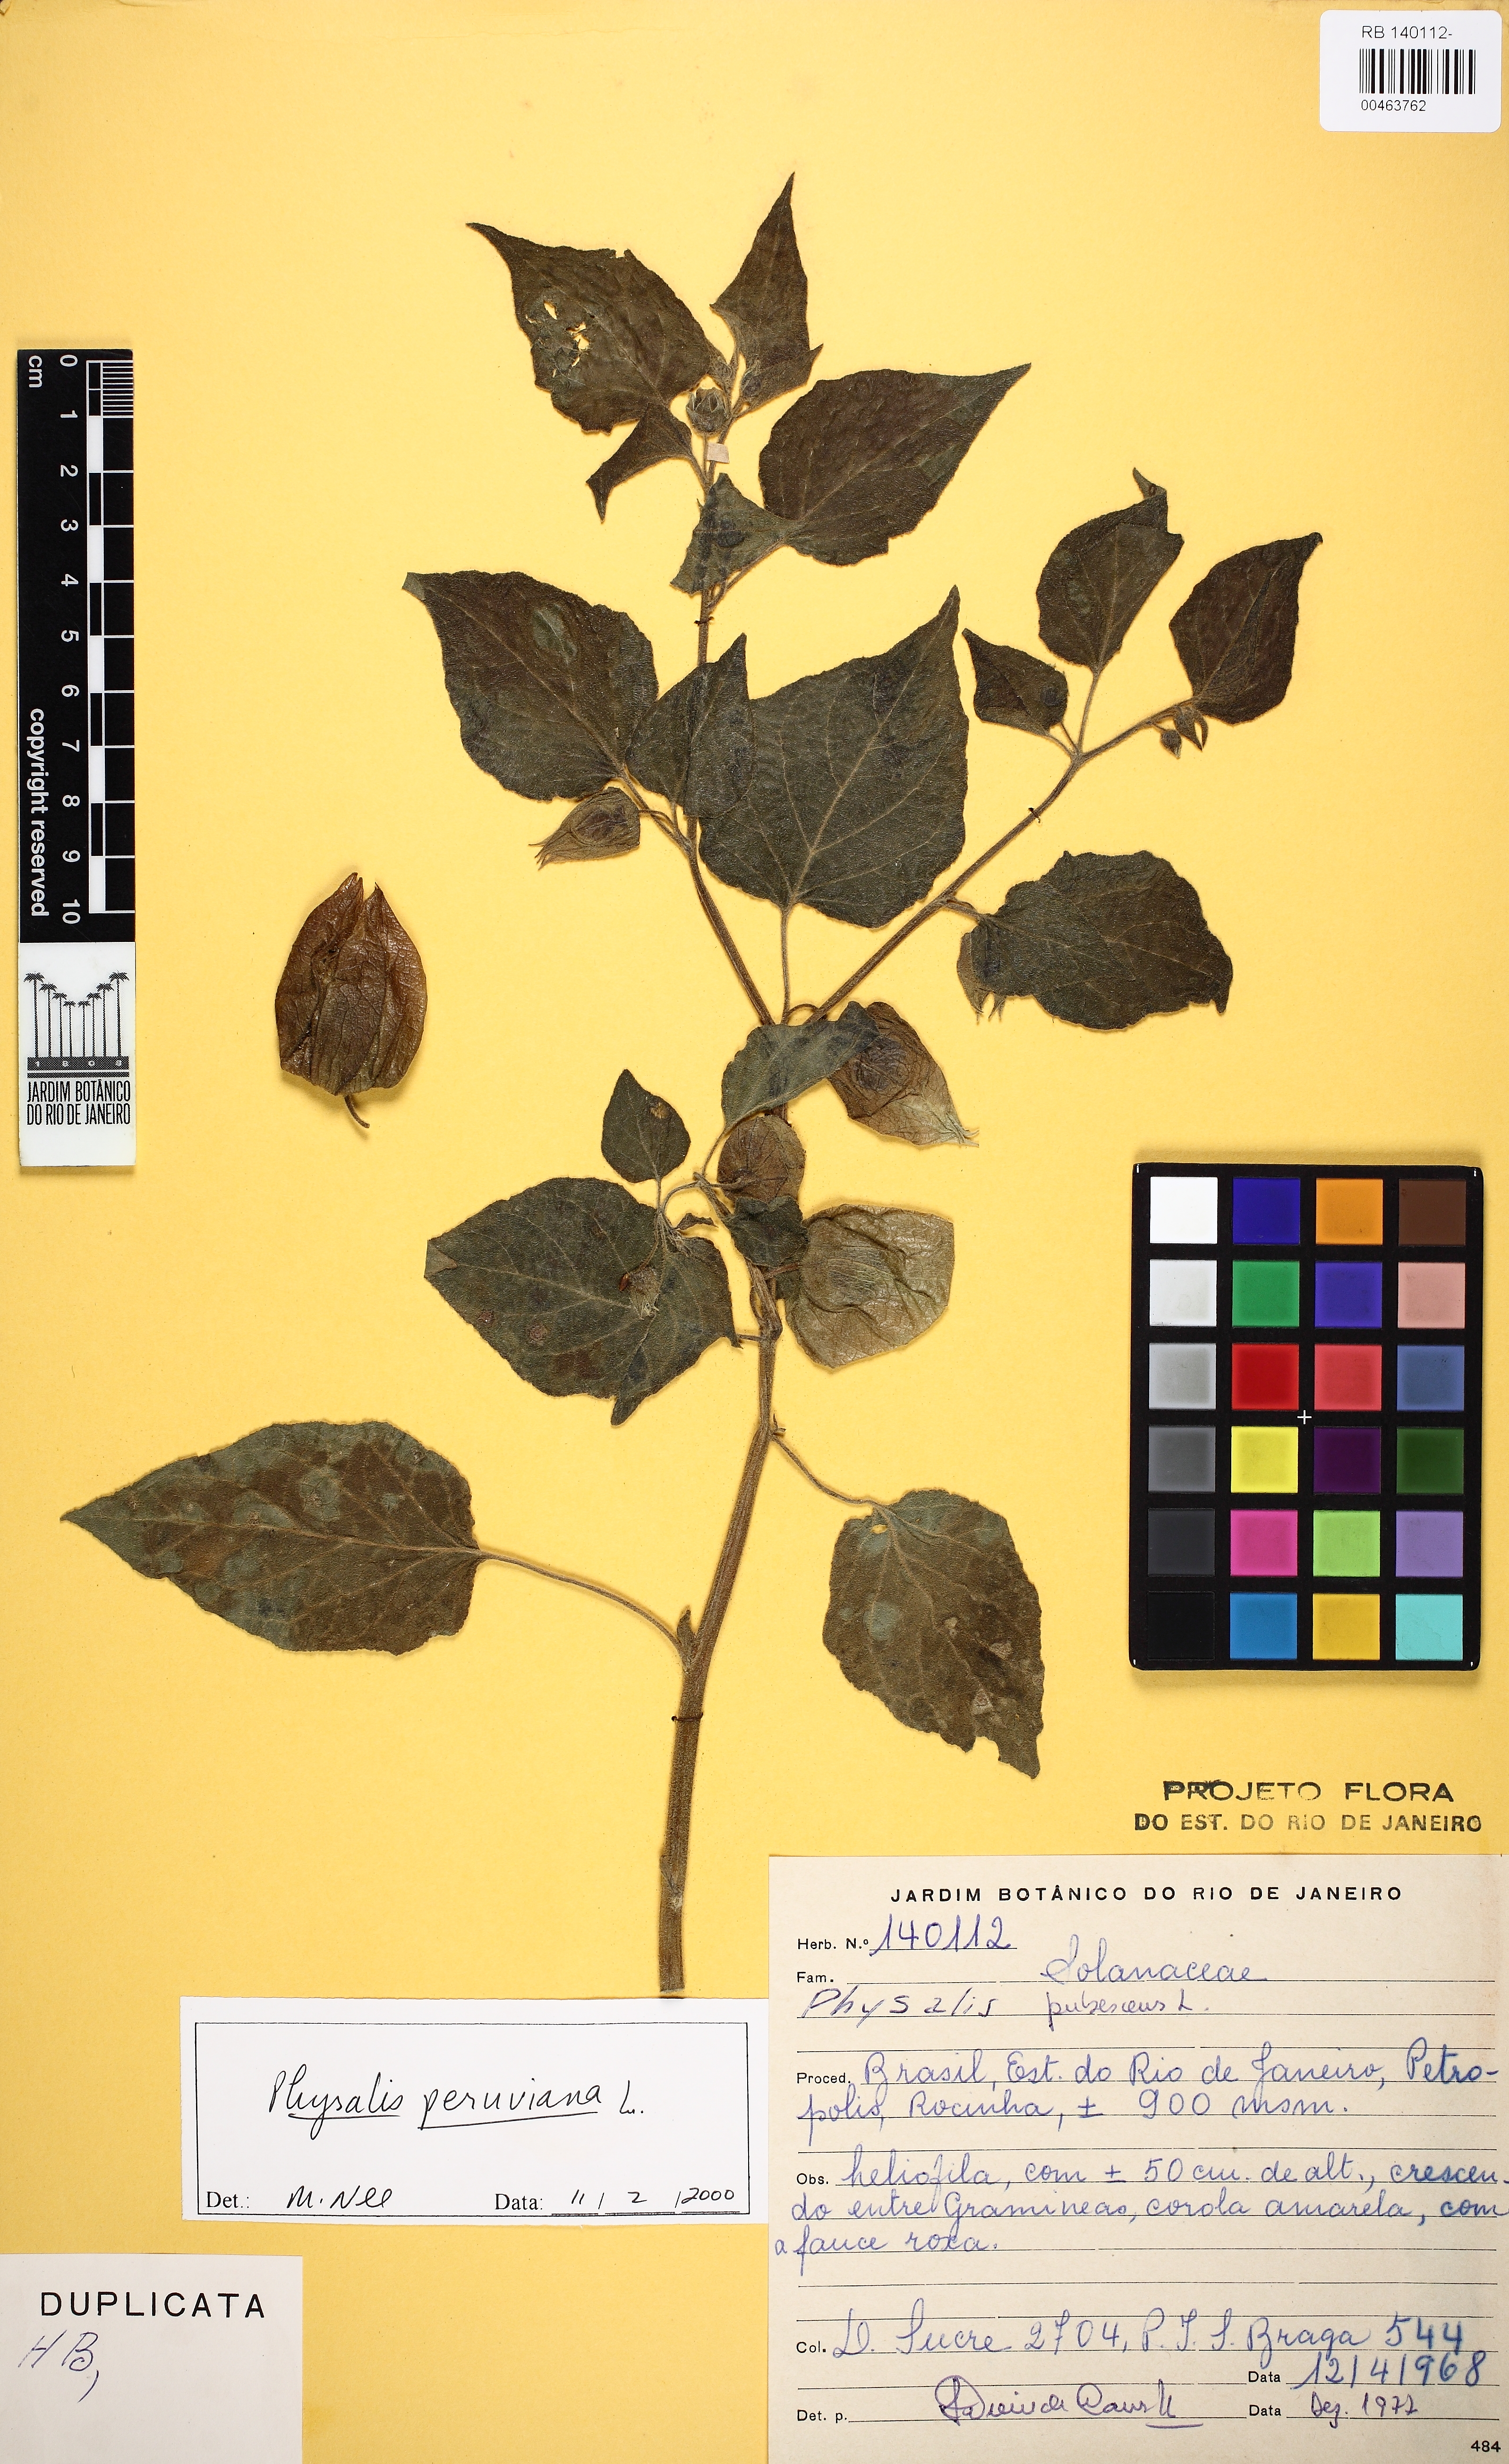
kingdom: Plantae
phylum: Tracheophyta
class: Magnoliopsida
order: Solanales
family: Solanaceae
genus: Physalis
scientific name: Physalis peruviana
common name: Cape-gooseberry
